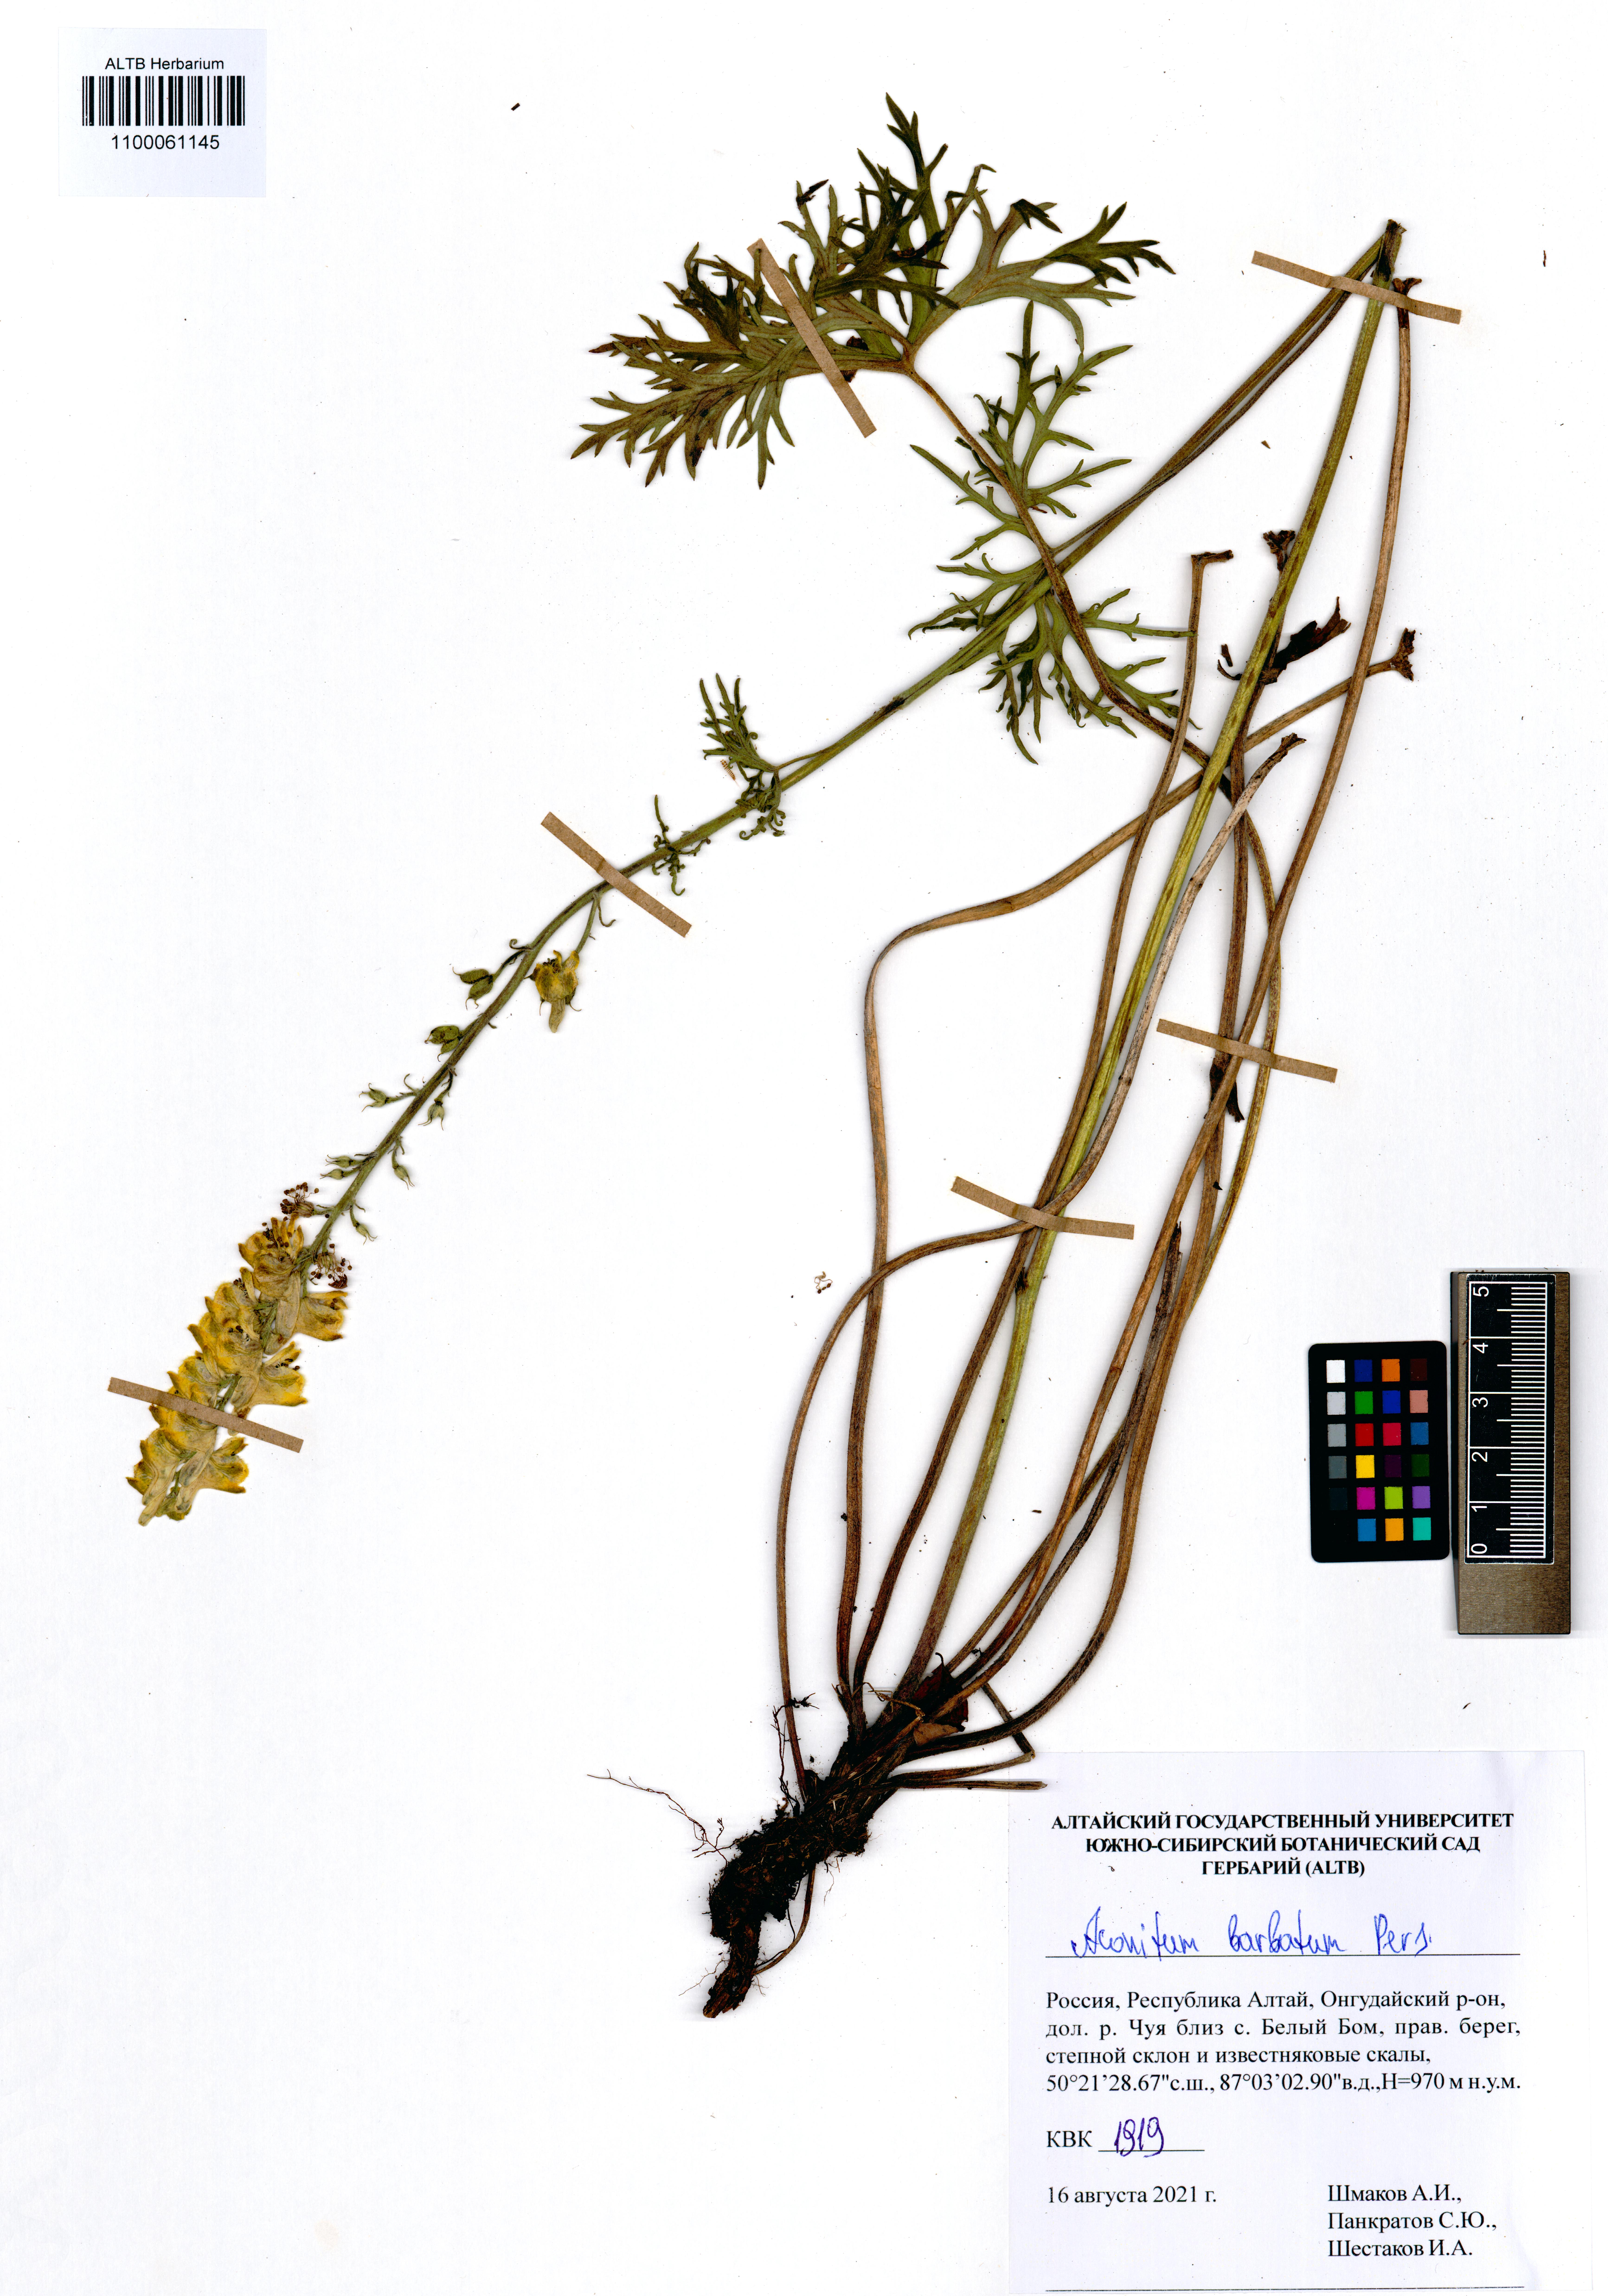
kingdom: Plantae
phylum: Tracheophyta
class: Magnoliopsida
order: Ranunculales
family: Ranunculaceae
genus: Aconitum
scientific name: Aconitum barbatum
